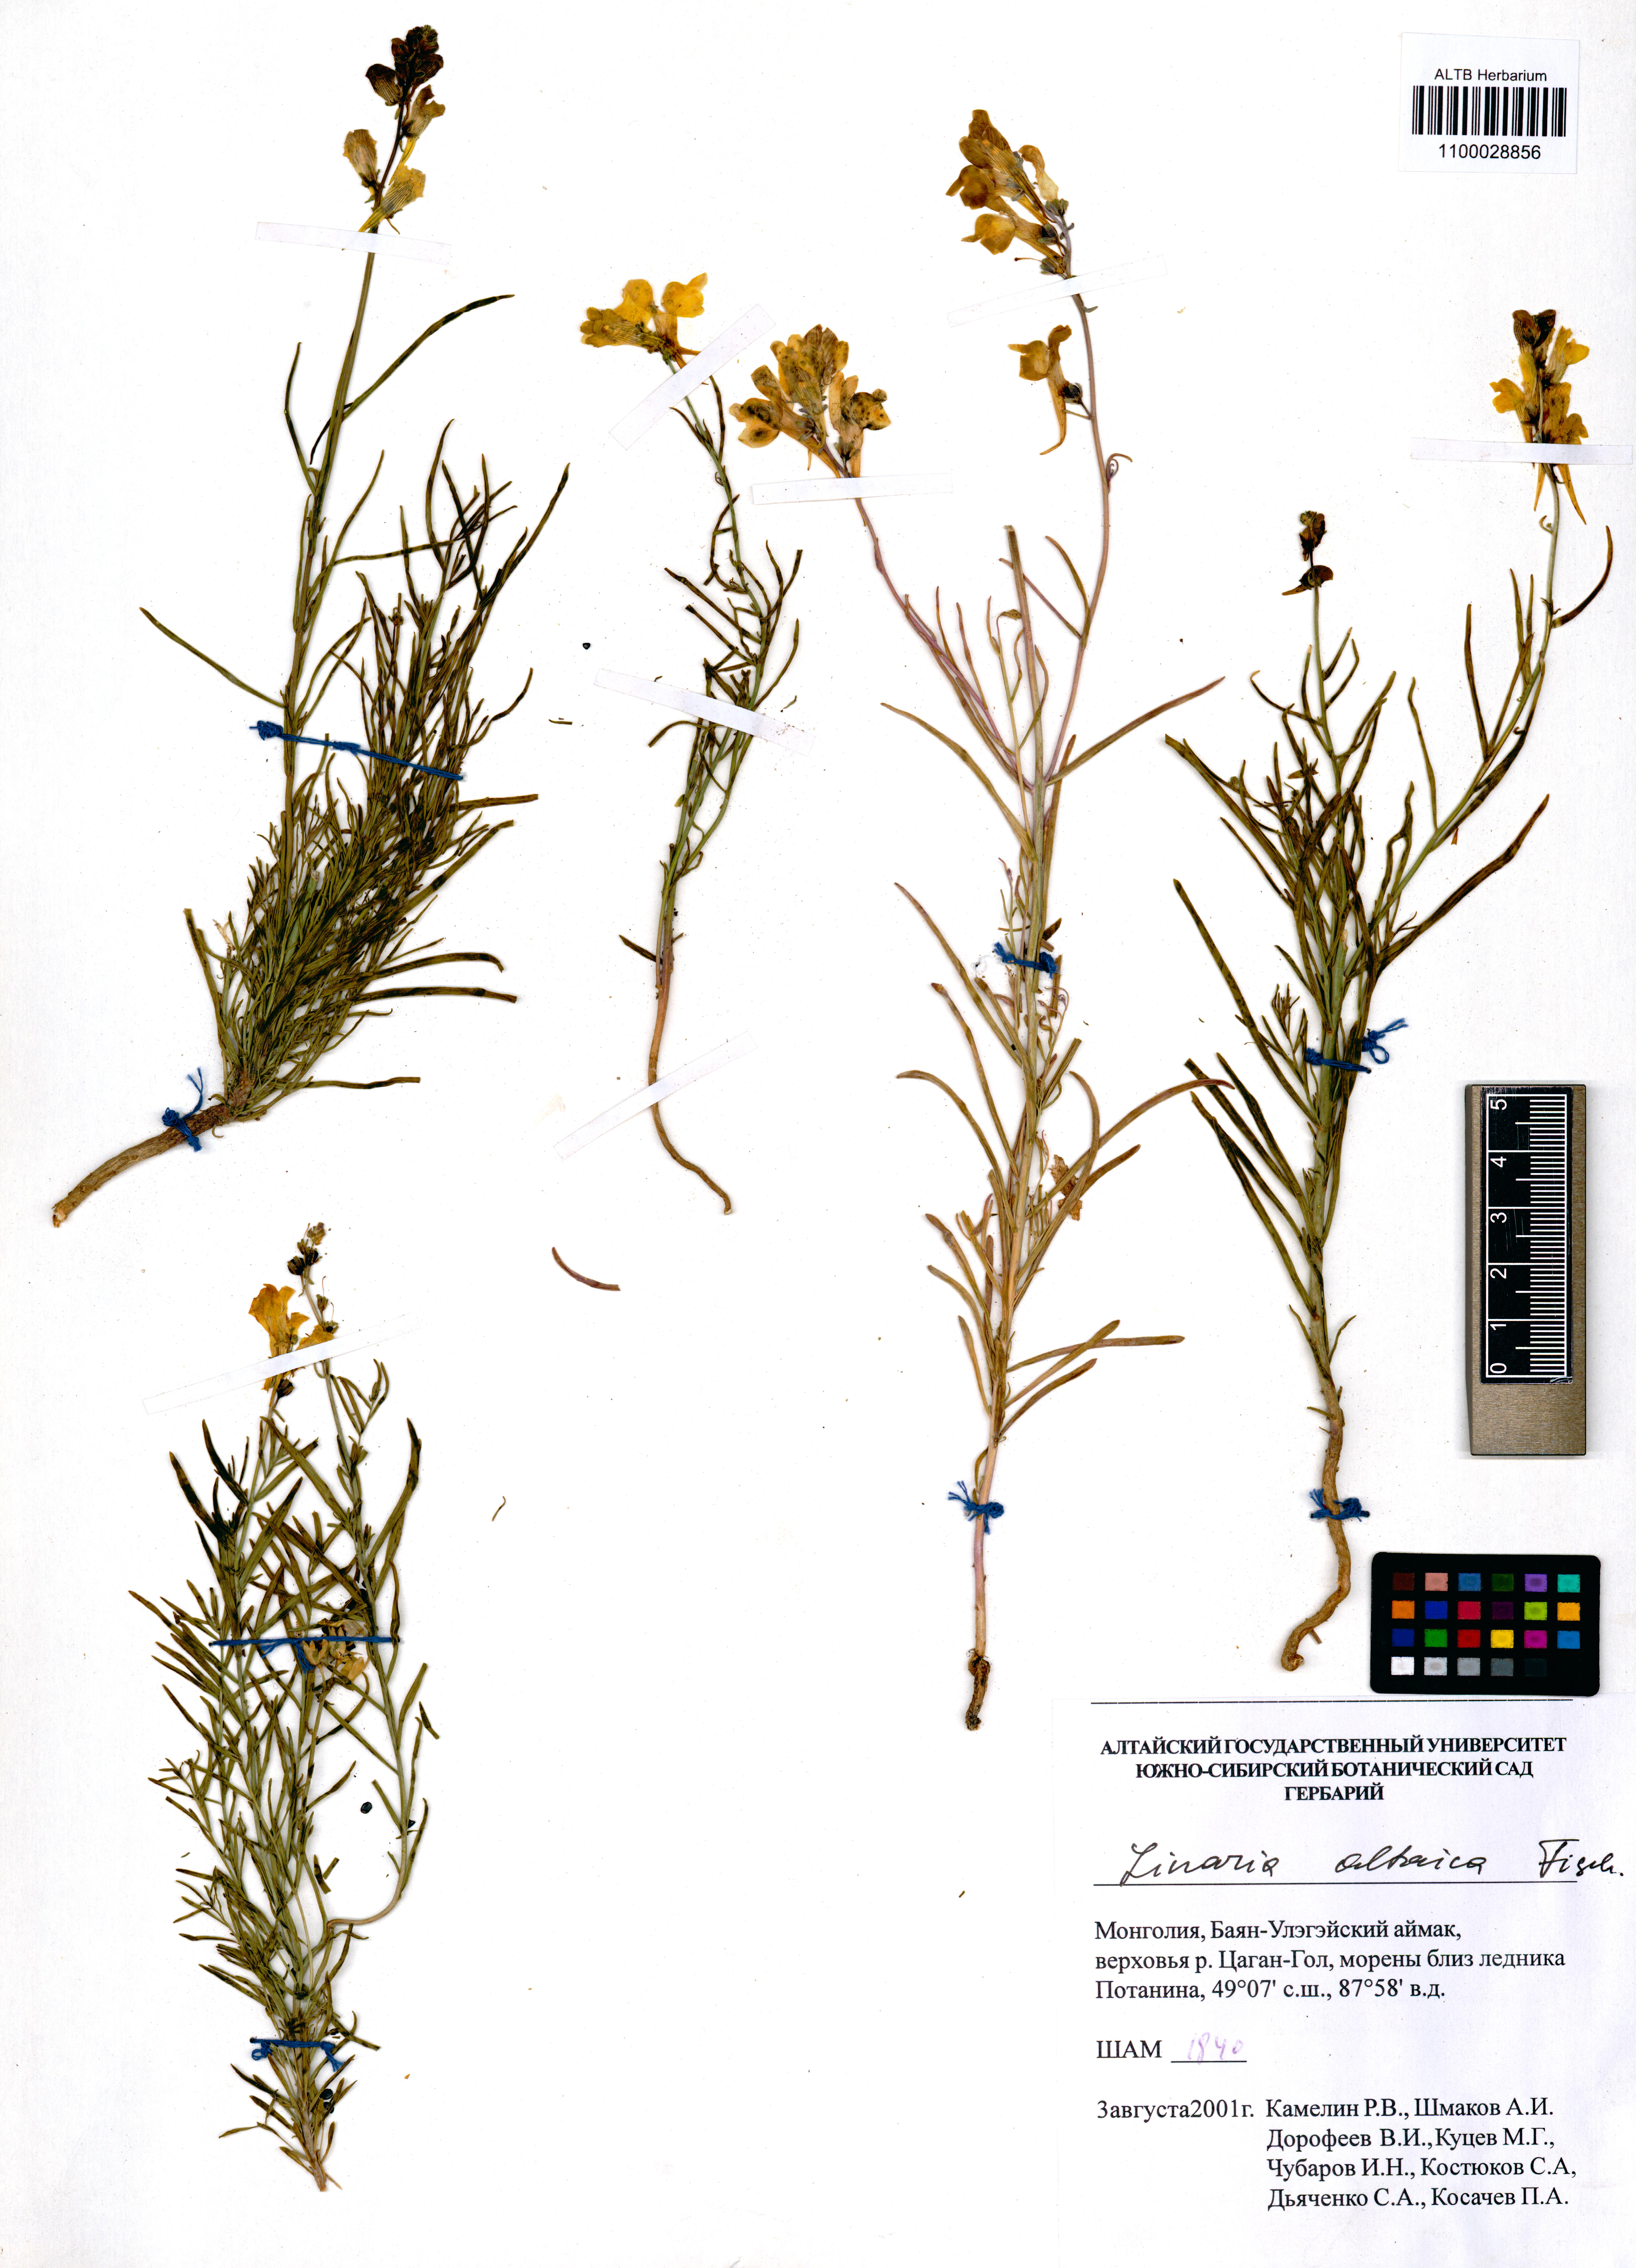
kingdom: Plantae
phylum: Tracheophyta
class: Magnoliopsida
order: Lamiales
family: Plantaginaceae
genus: Linaria
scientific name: Linaria altaica
